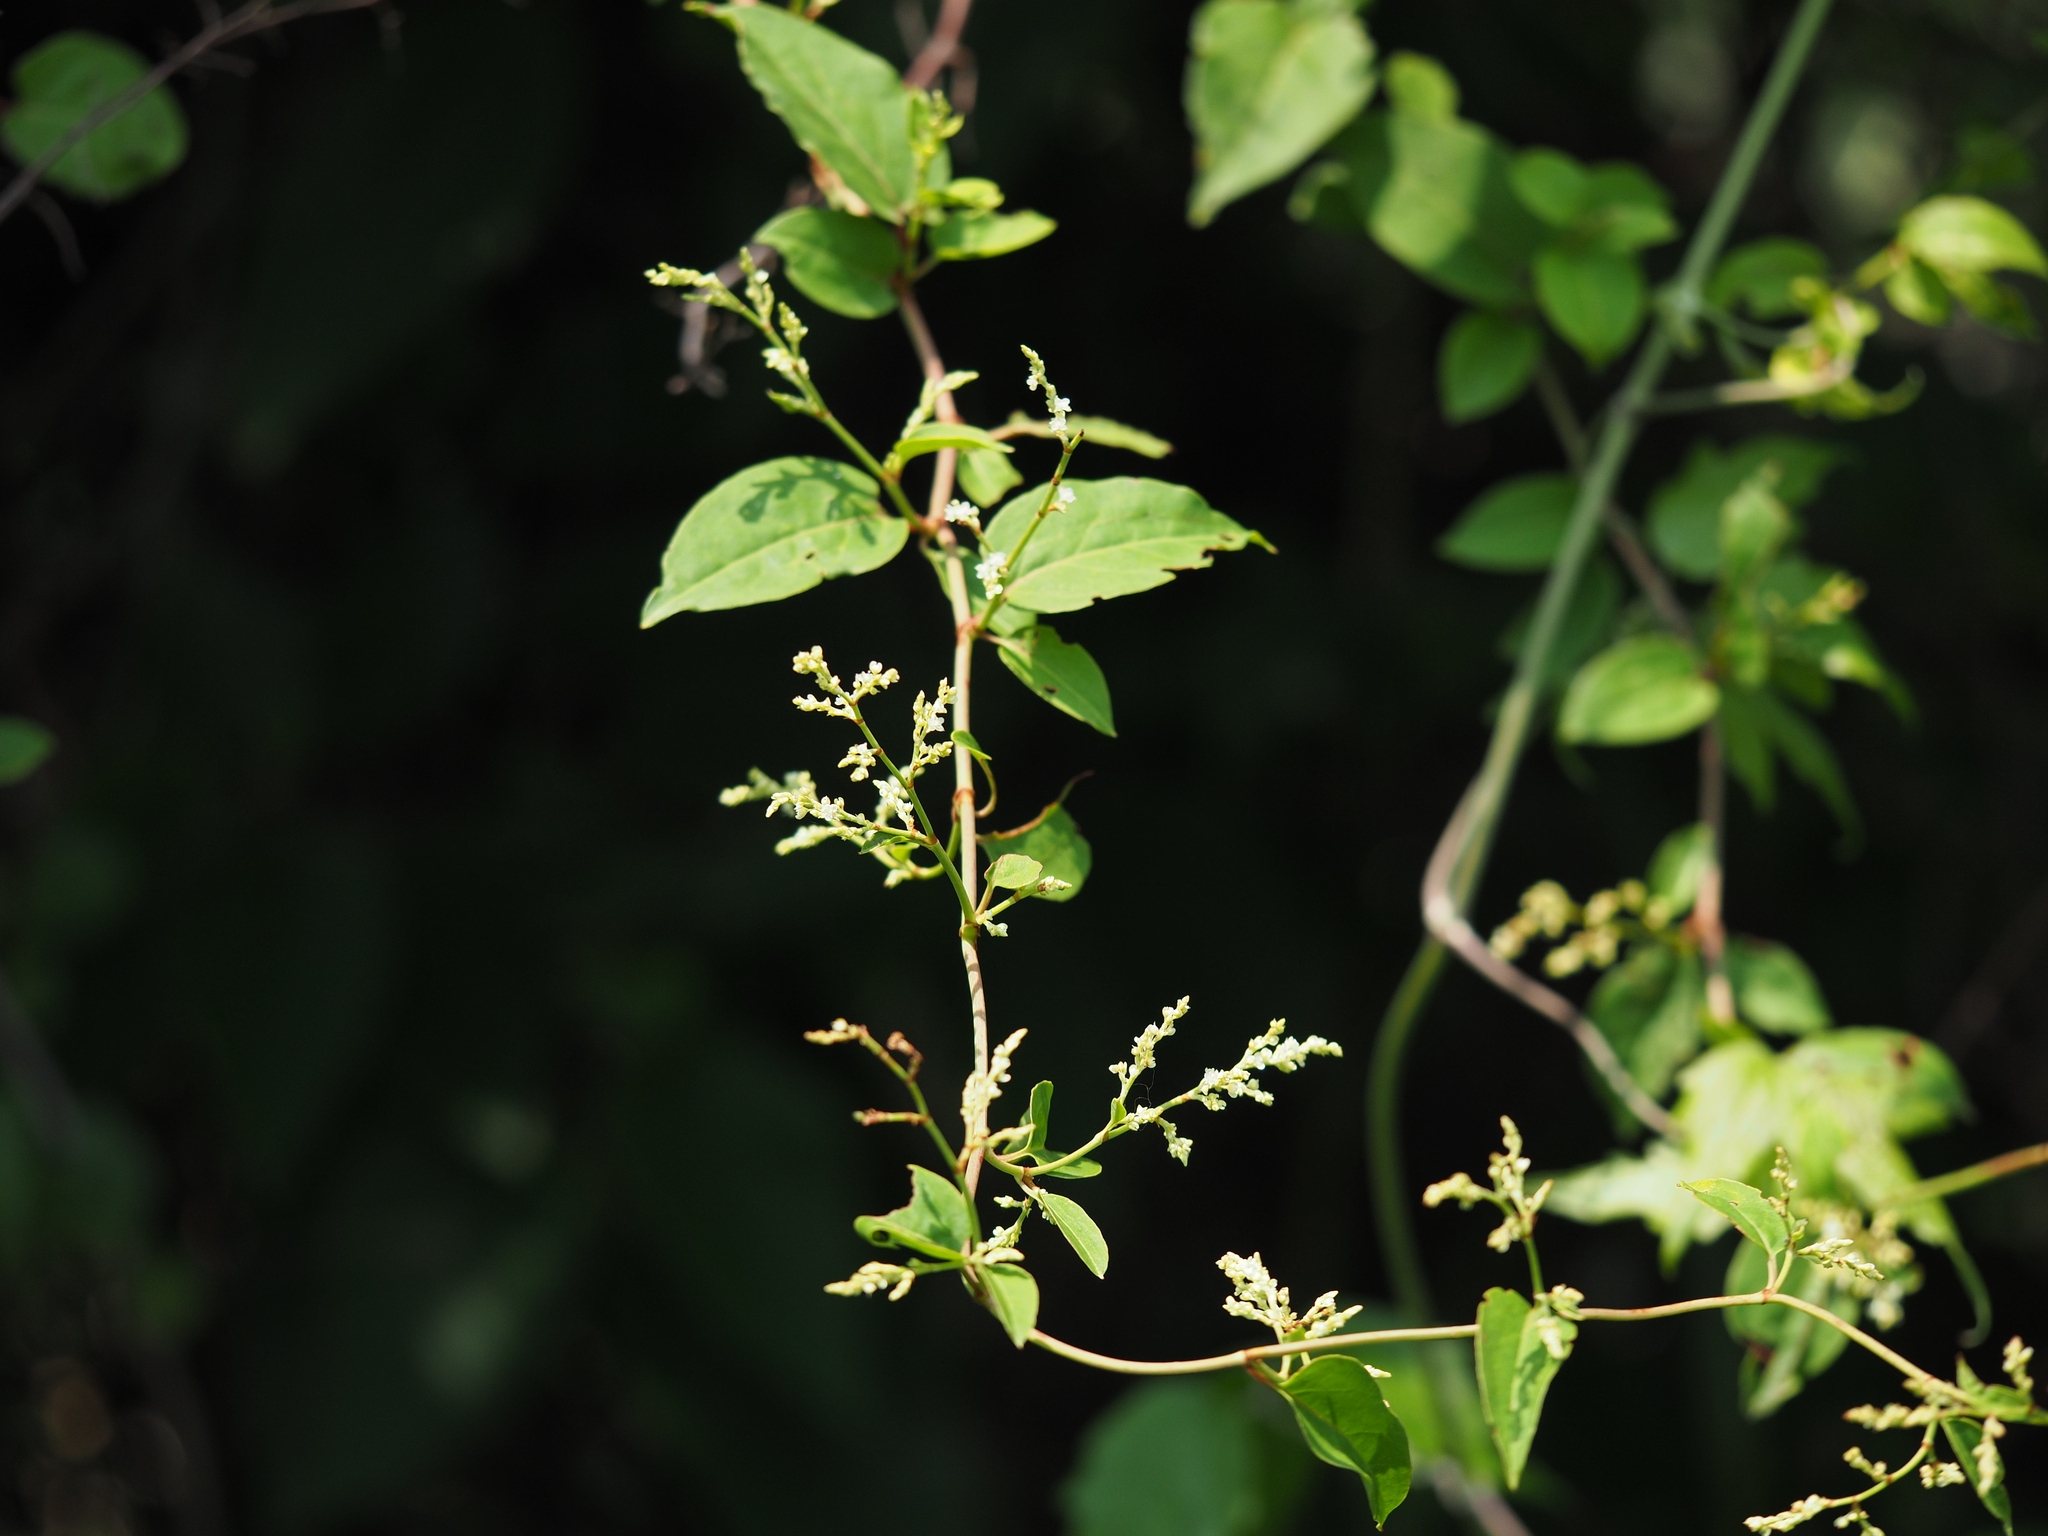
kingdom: Plantae
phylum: Tracheophyta
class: Magnoliopsida
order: Caryophyllales
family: Polygonaceae
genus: Reynoutria
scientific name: Reynoutria multiflora
